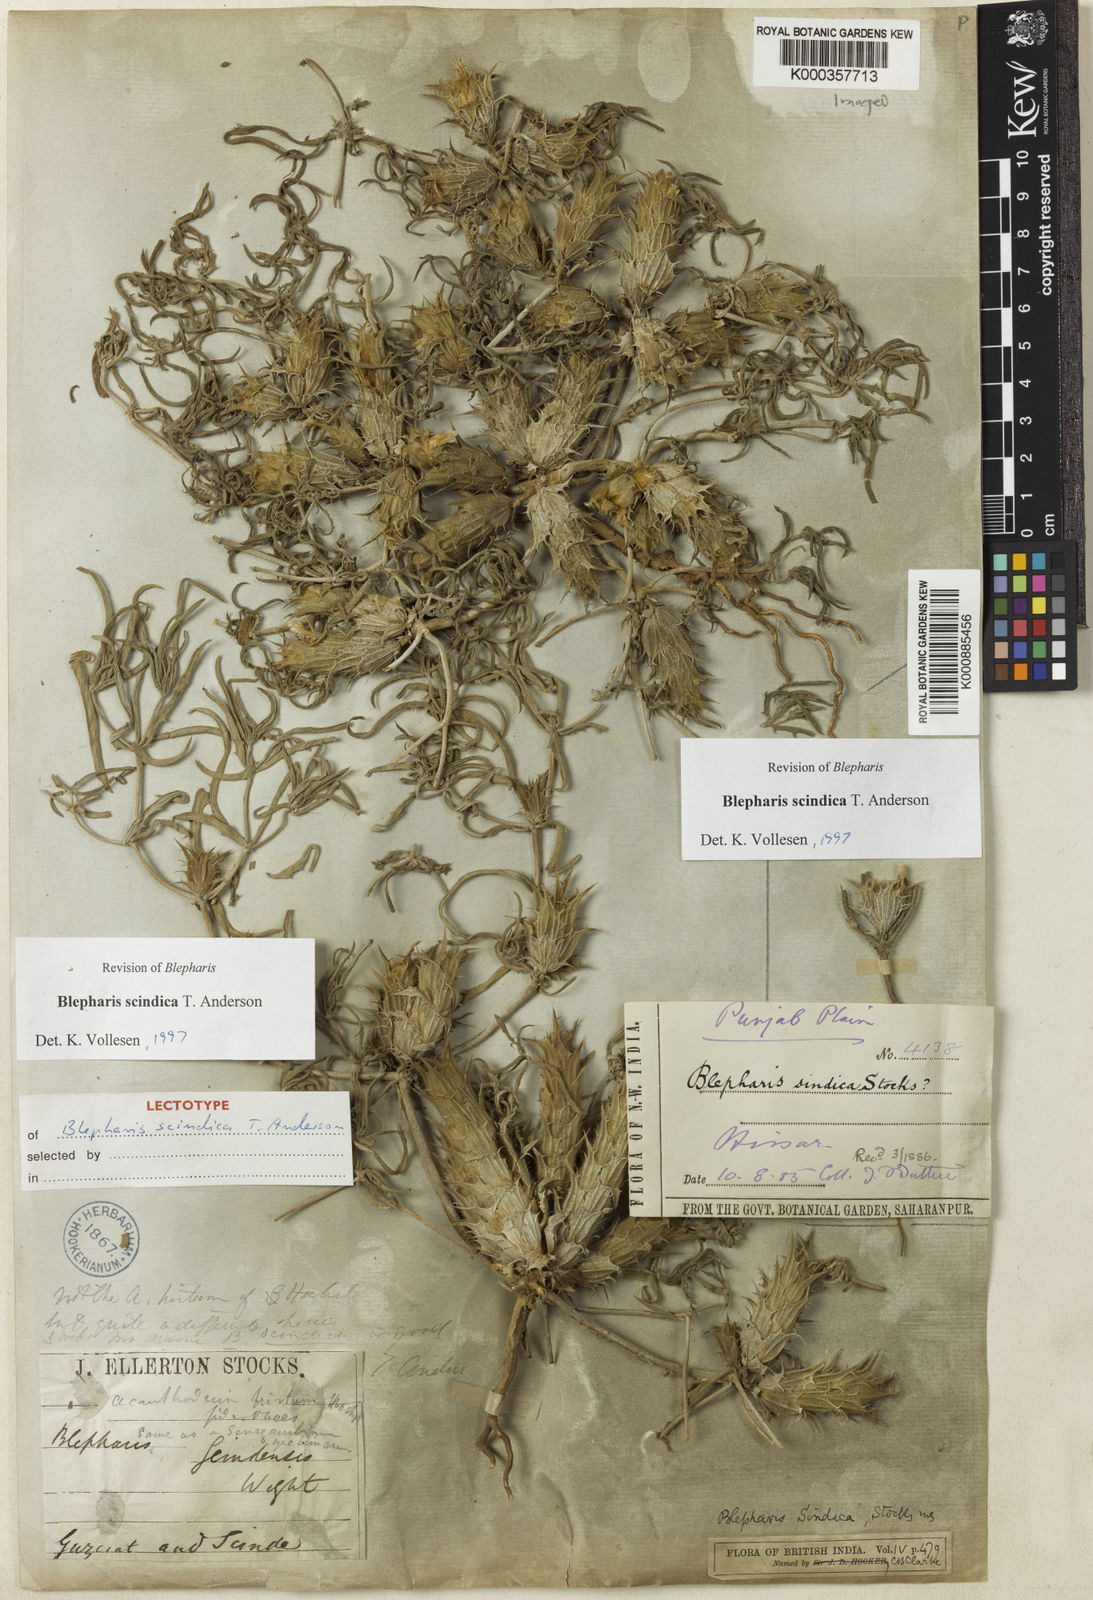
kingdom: Plantae
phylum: Tracheophyta
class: Magnoliopsida
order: Lamiales
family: Acanthaceae
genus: Blepharis
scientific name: Blepharis scindica
